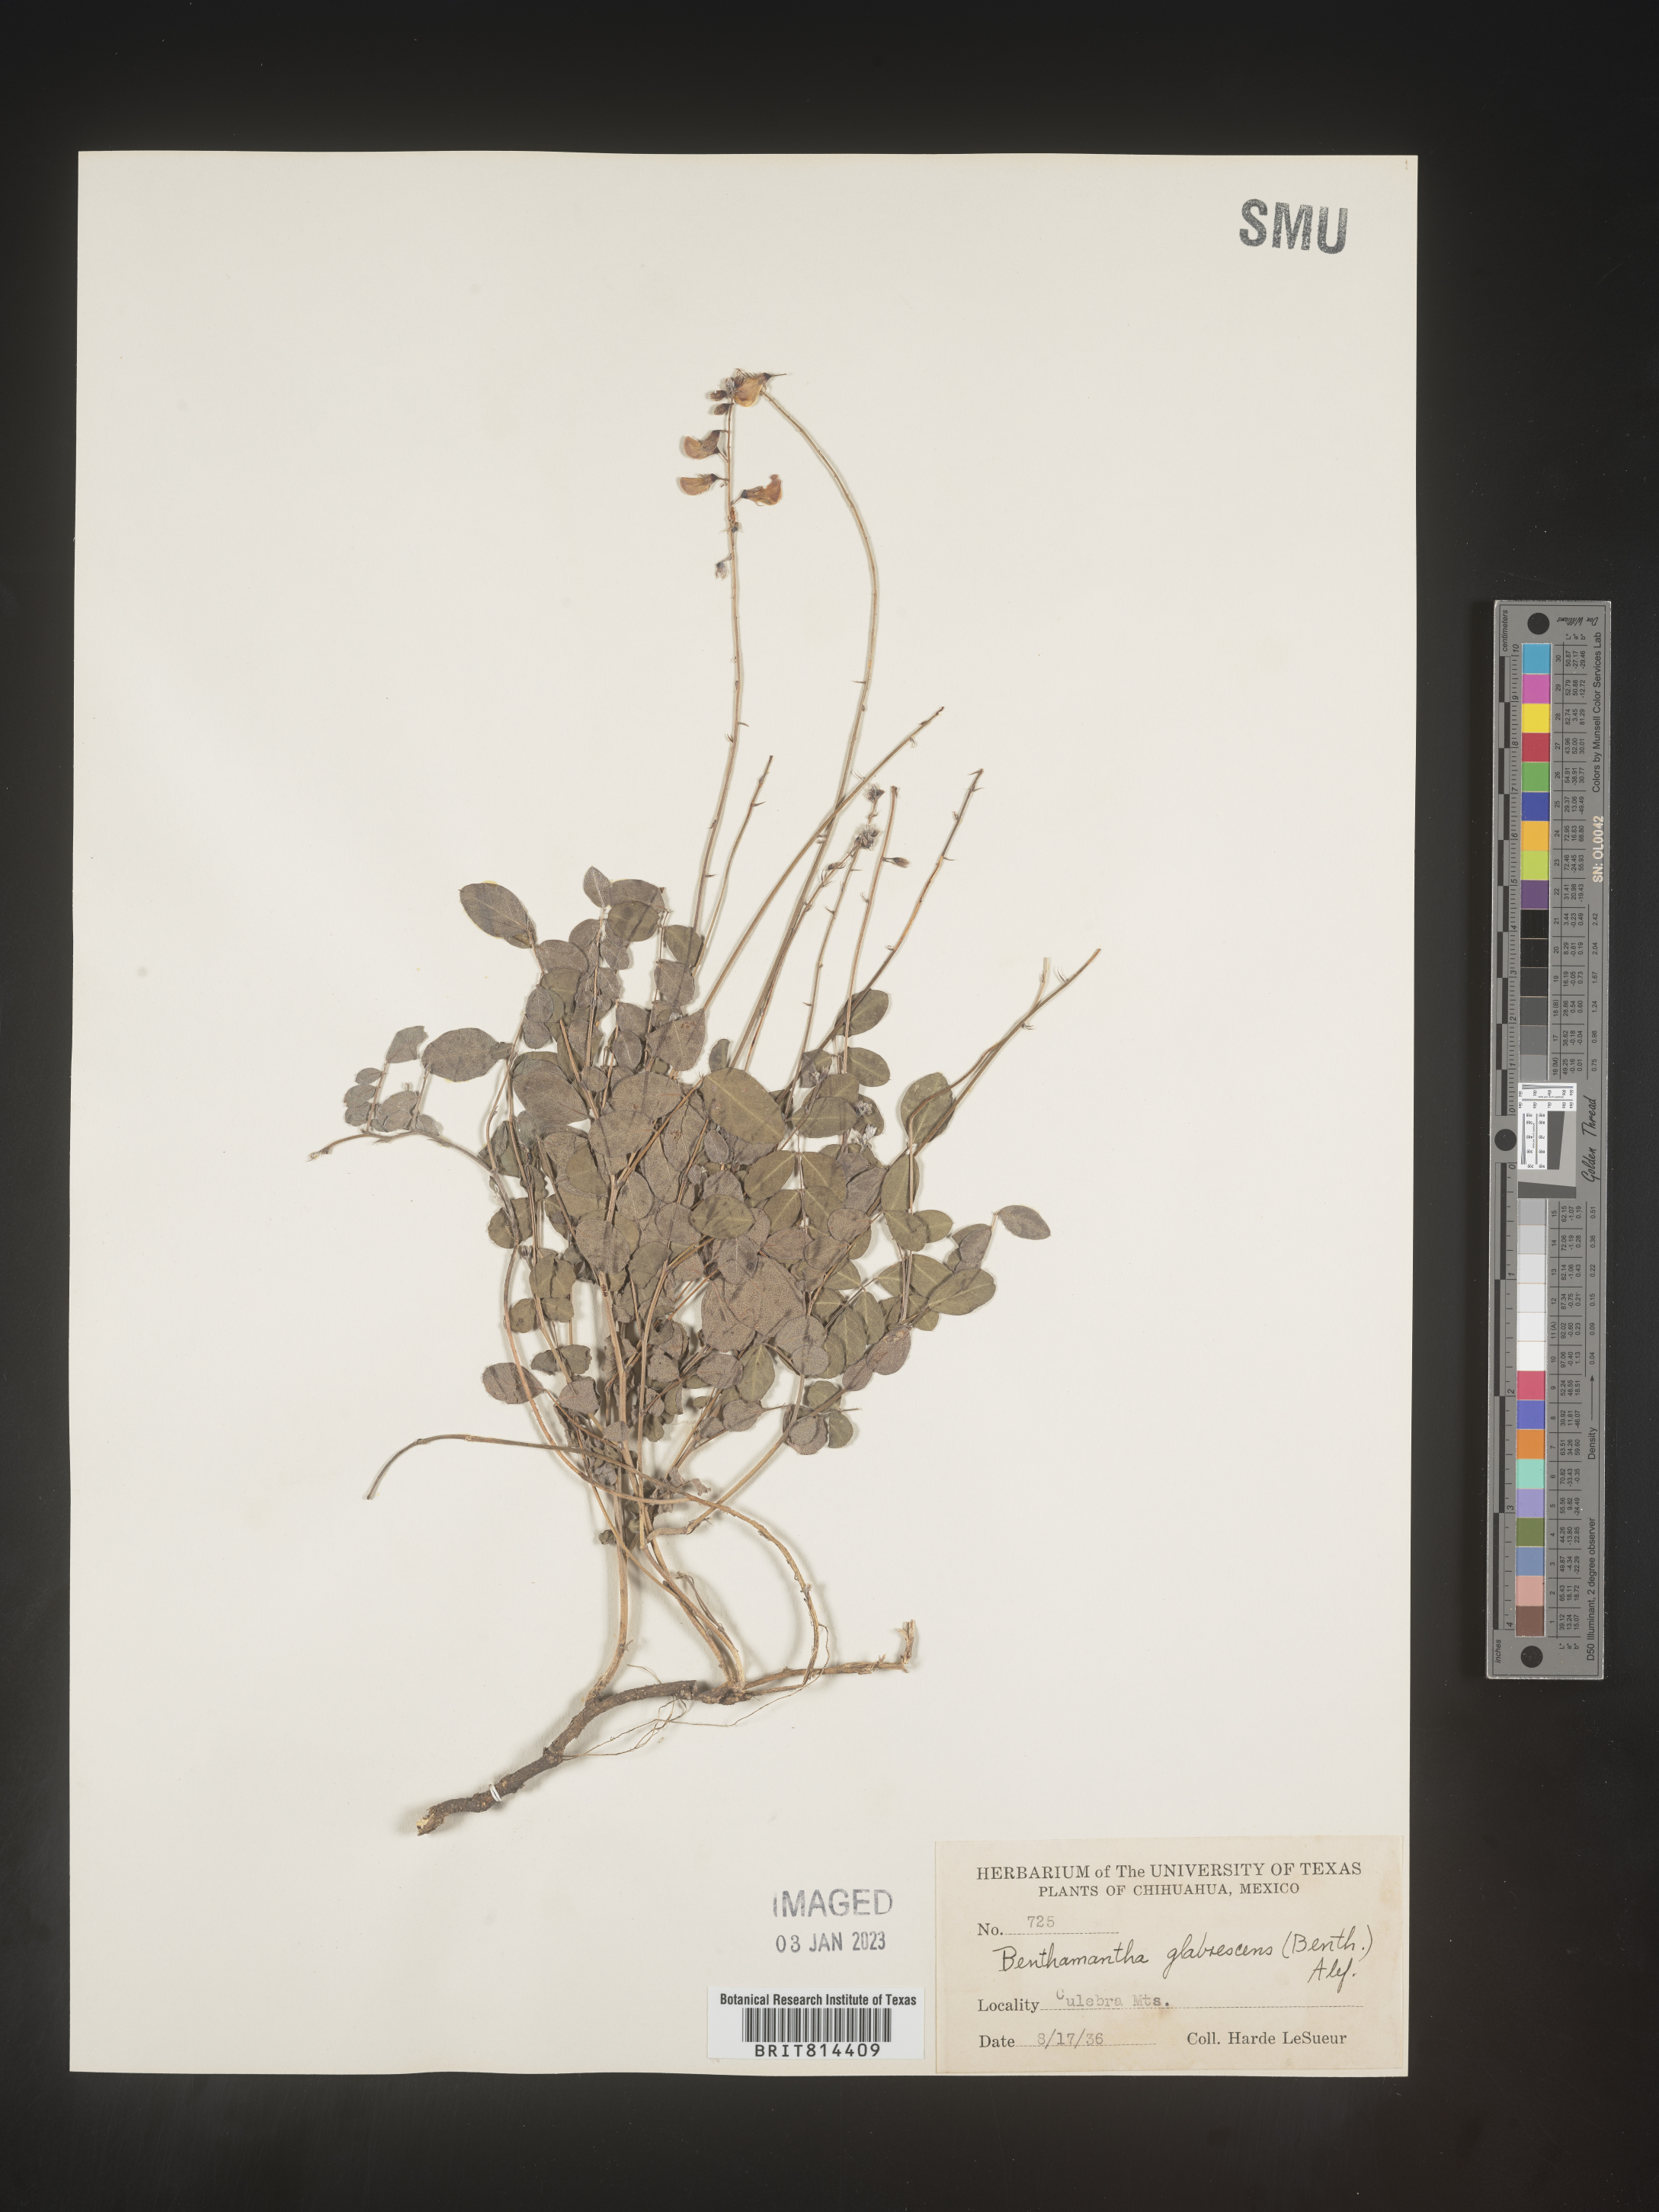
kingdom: Plantae
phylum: Tracheophyta
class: Magnoliopsida
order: Fabales
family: Fabaceae
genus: Coursetia
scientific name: Coursetia
